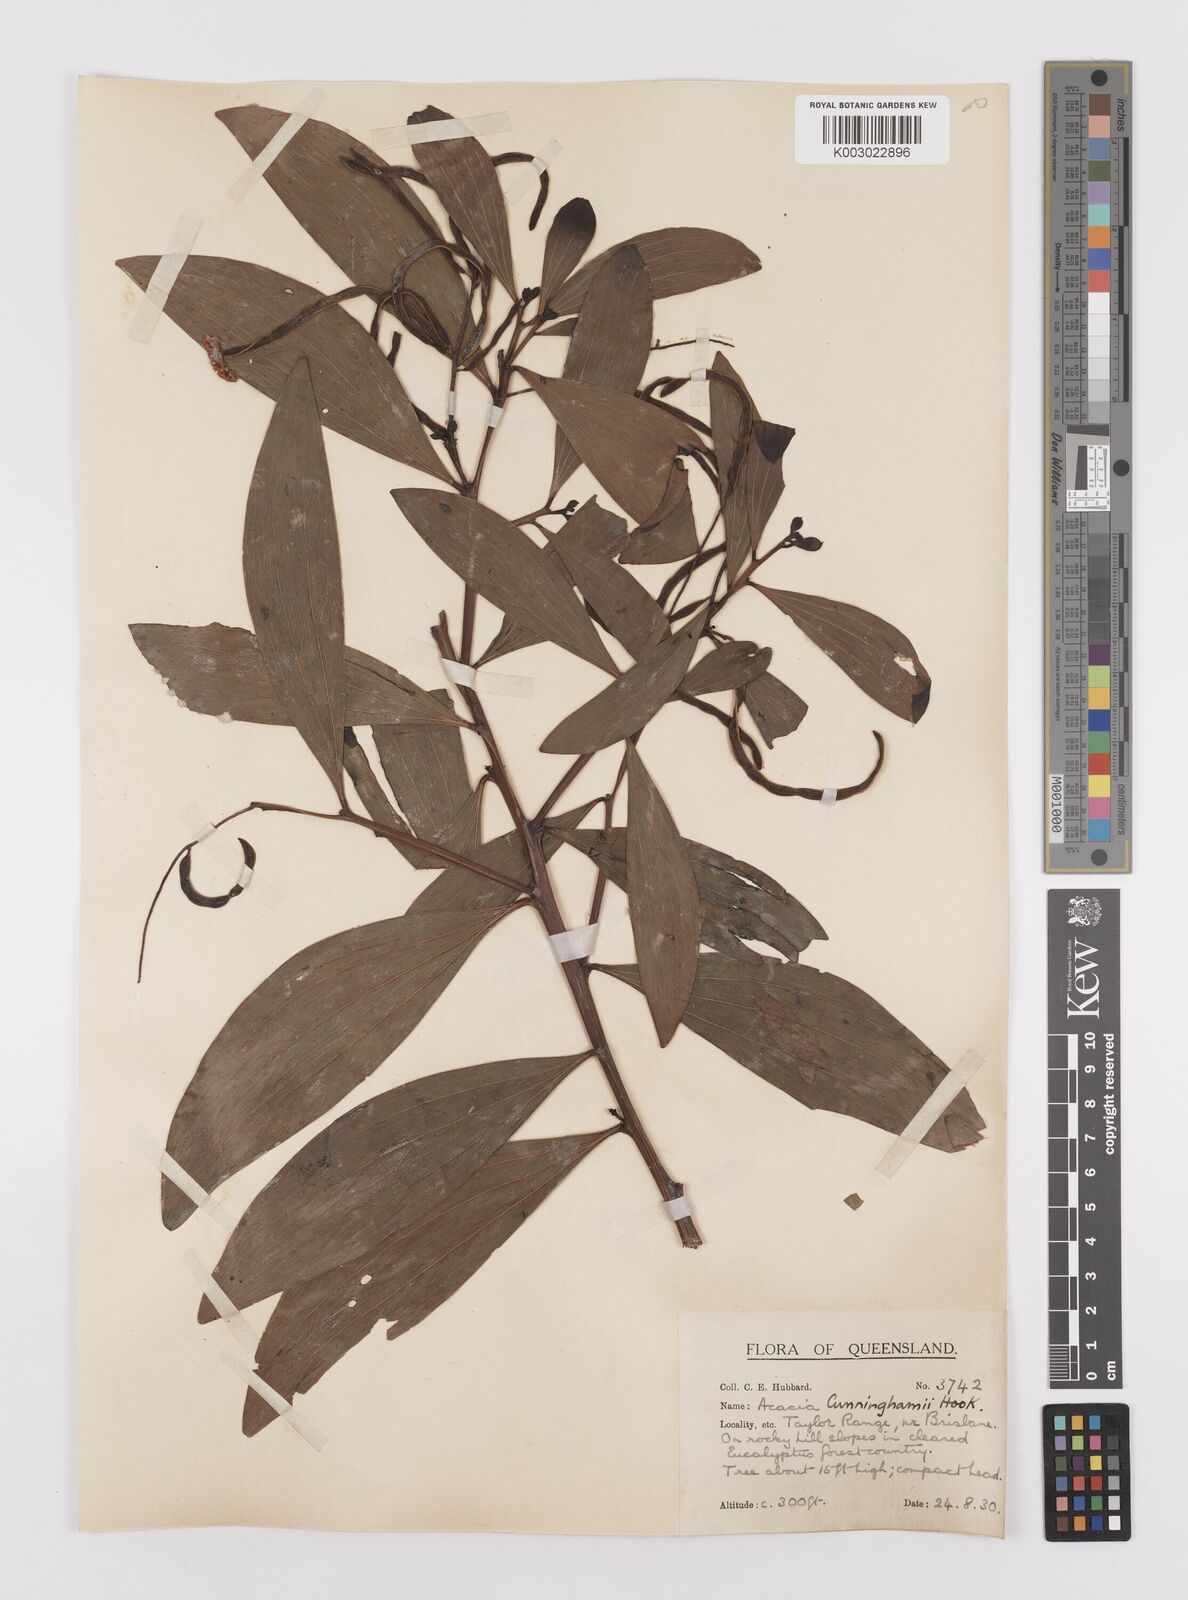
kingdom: Plantae
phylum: Tracheophyta
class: Magnoliopsida
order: Fabales
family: Fabaceae
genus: Acacia
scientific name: Acacia longispicata
